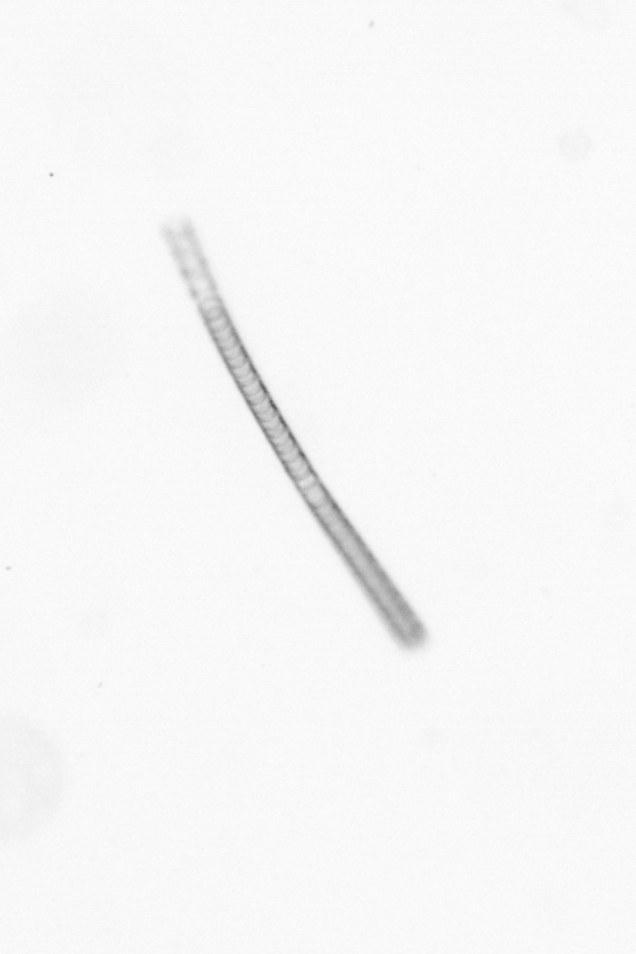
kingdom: Chromista
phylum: Ochrophyta
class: Bacillariophyceae
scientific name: Bacillariophyceae
